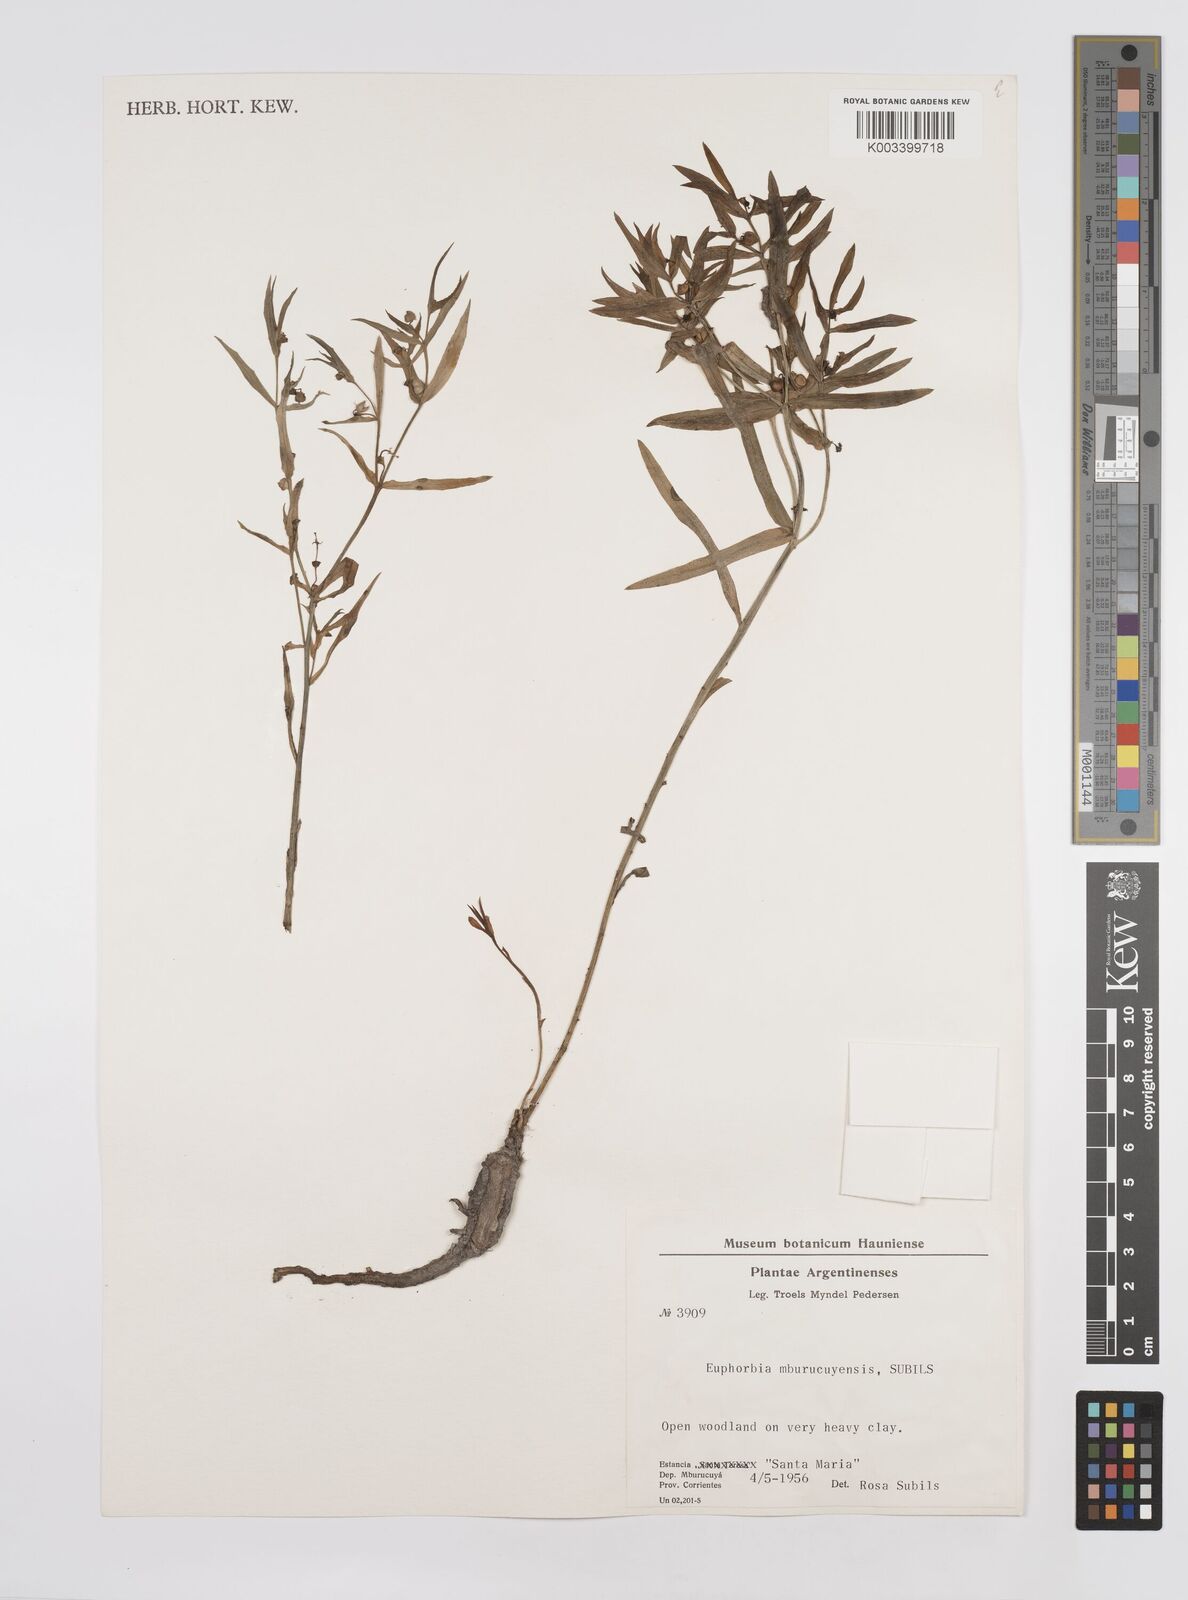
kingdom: Plantae
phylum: Tracheophyta
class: Magnoliopsida
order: Malpighiales
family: Euphorbiaceae
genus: Euphorbia
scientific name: Euphorbia
